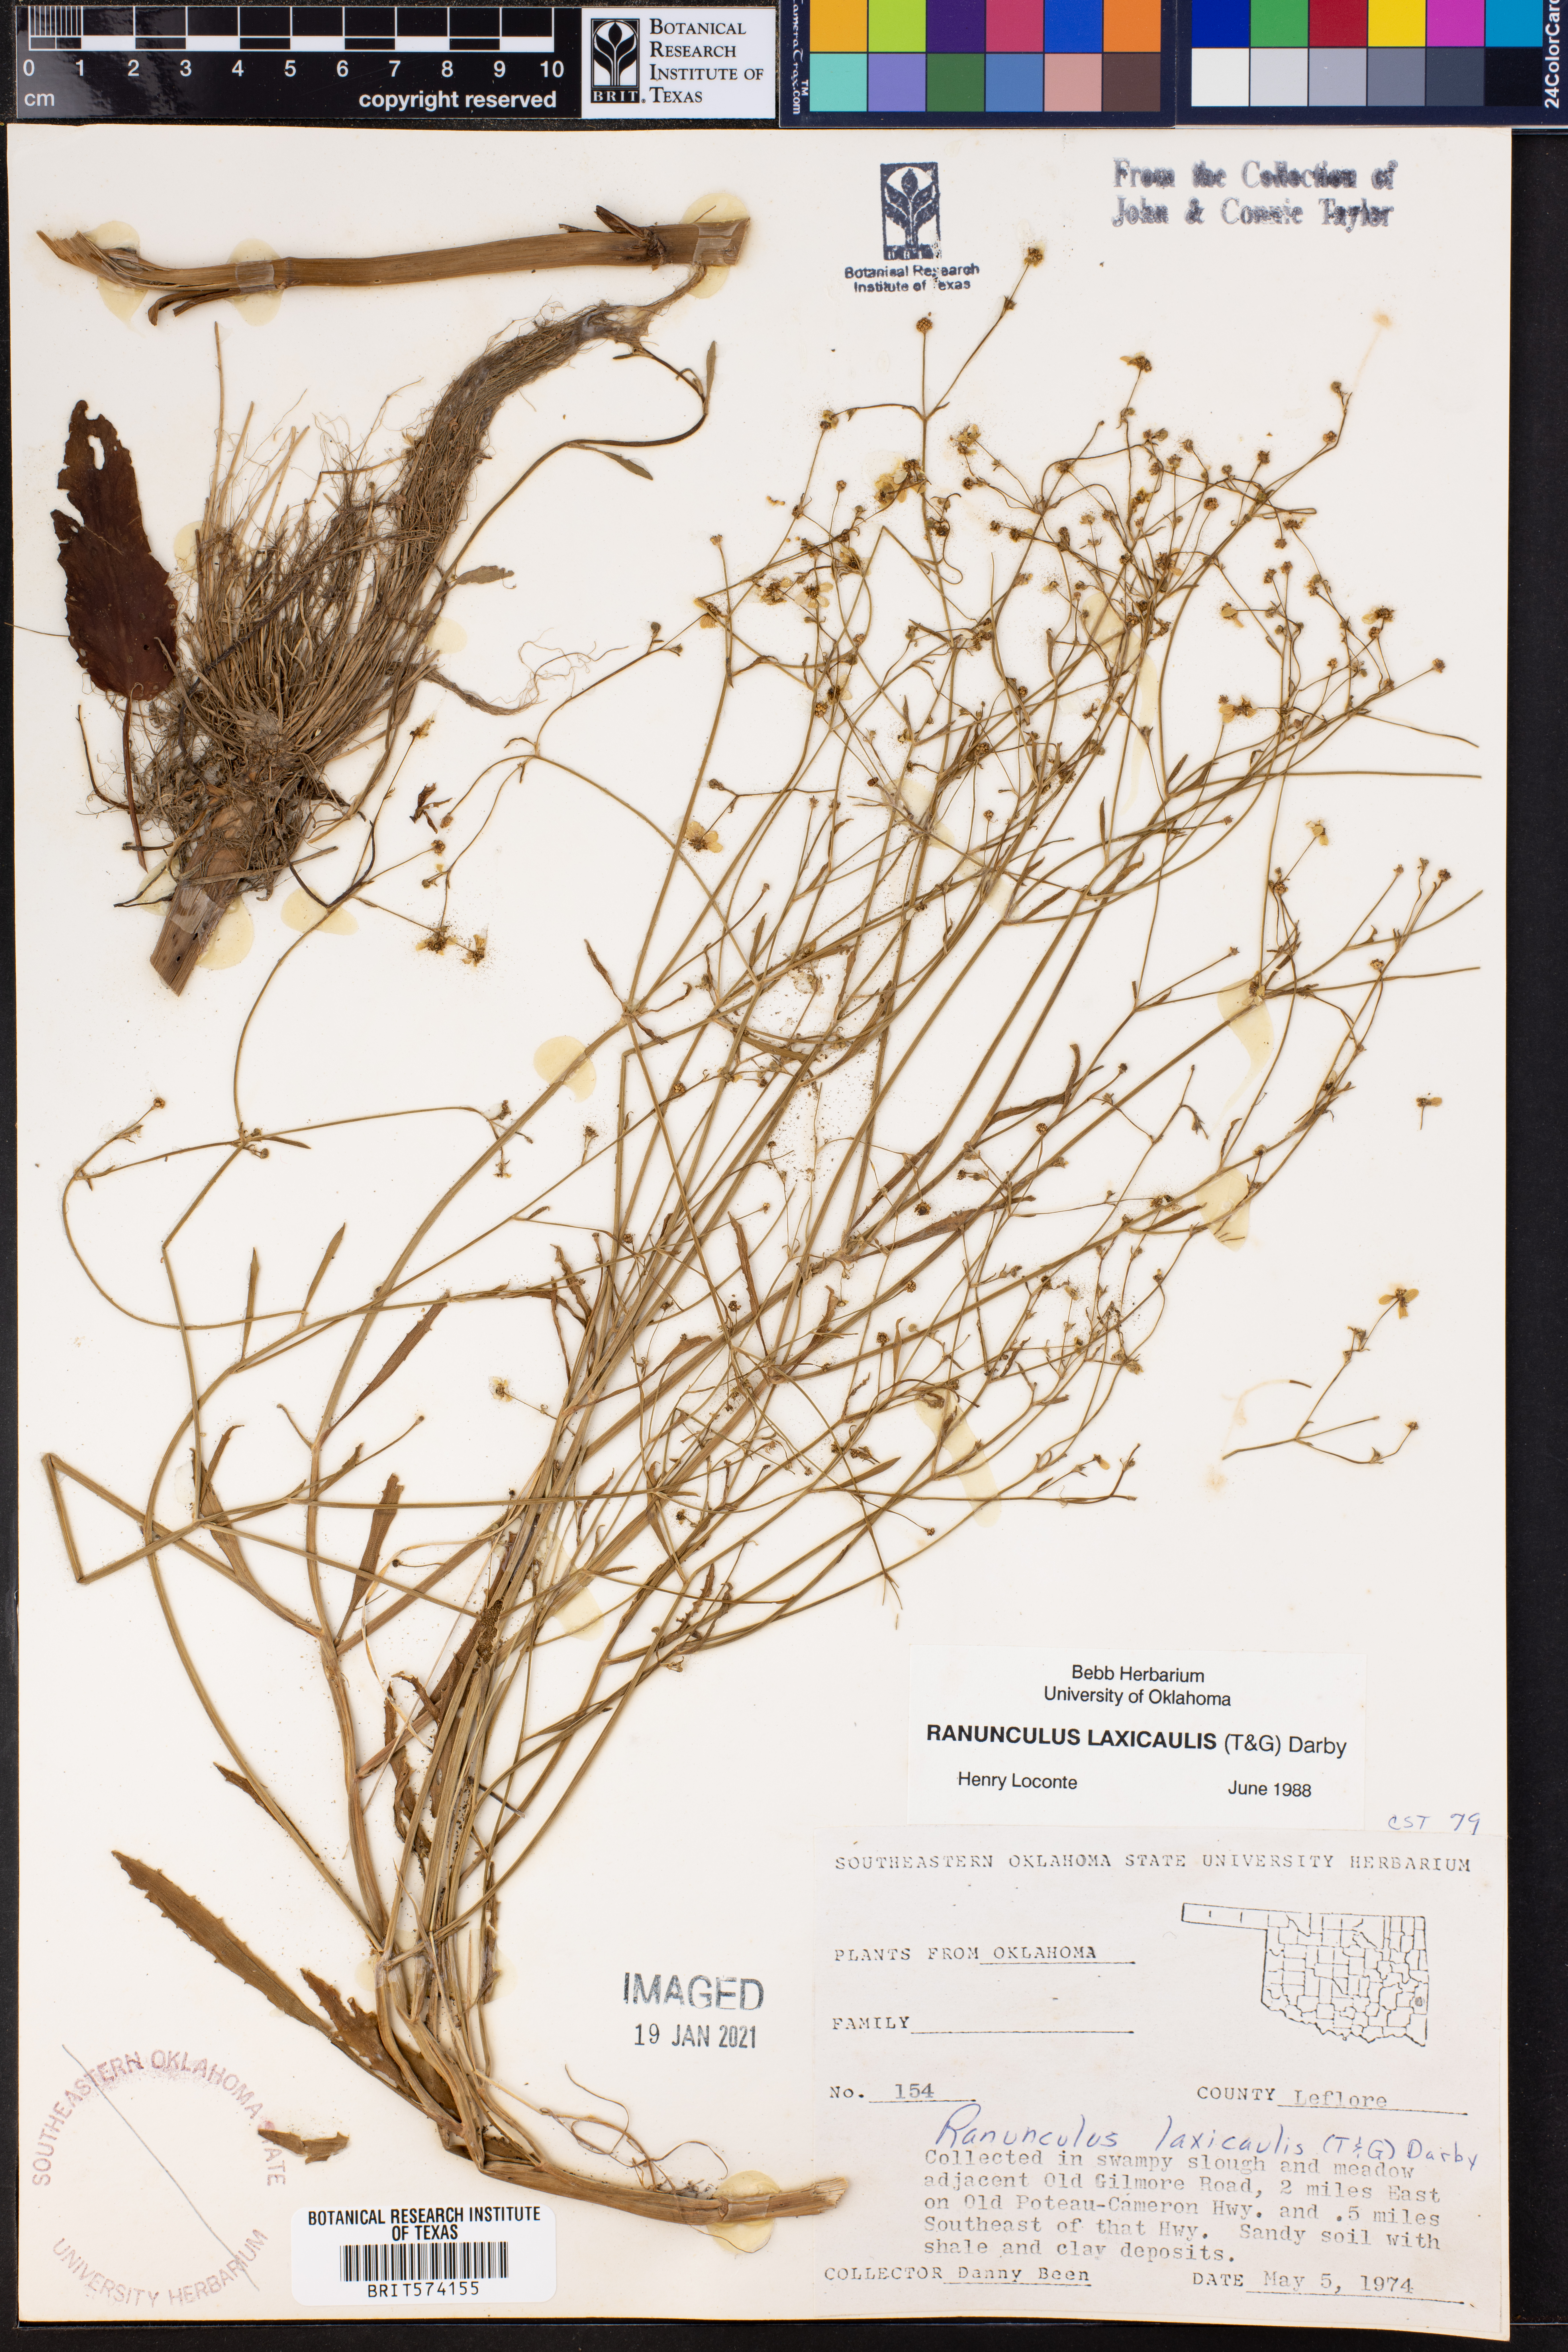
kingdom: Plantae
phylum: Tracheophyta
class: Magnoliopsida
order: Ranunculales
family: Ranunculaceae
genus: Ranunculus
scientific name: Ranunculus laxicaulis
